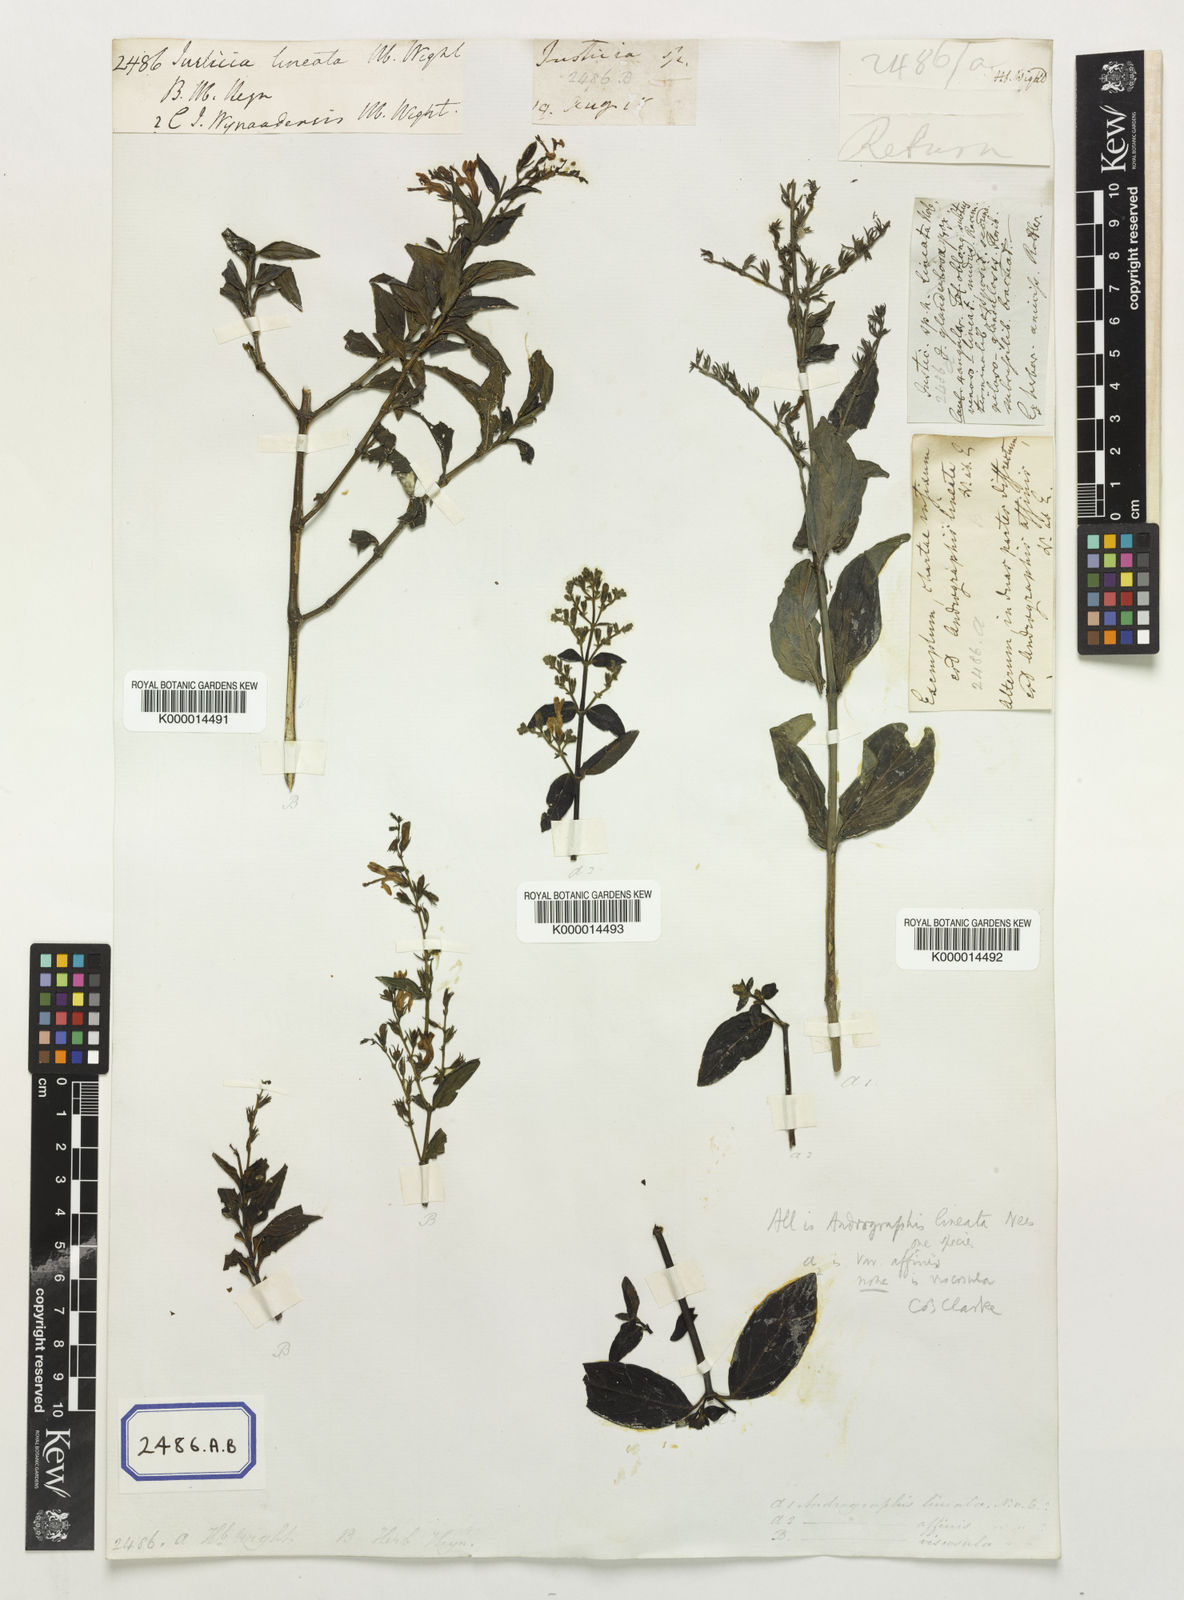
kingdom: Plantae
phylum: Tracheophyta
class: Magnoliopsida
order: Lamiales
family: Acanthaceae
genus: Andrographis
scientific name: Andrographis lineata
